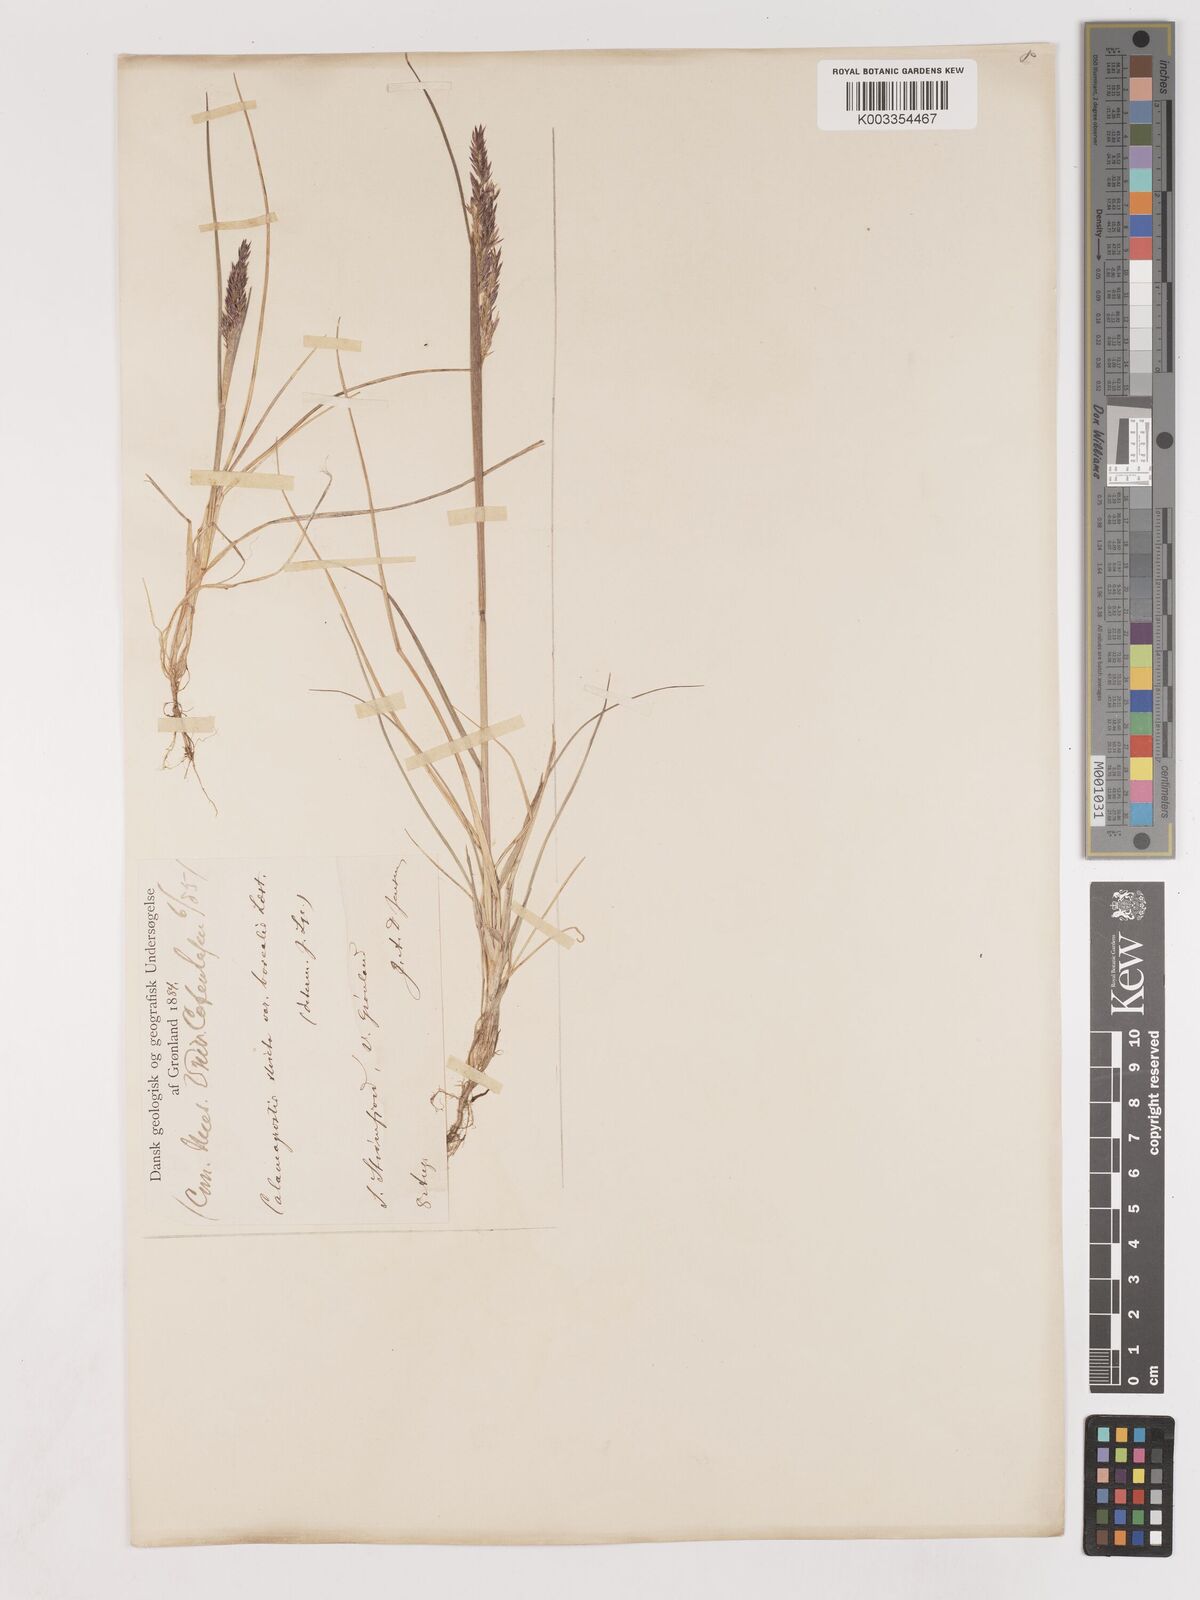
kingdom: Plantae
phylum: Tracheophyta
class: Liliopsida
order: Poales
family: Poaceae
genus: Calamagrostis
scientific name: Calamagrostis purpurascens
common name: Purple reedgrass
